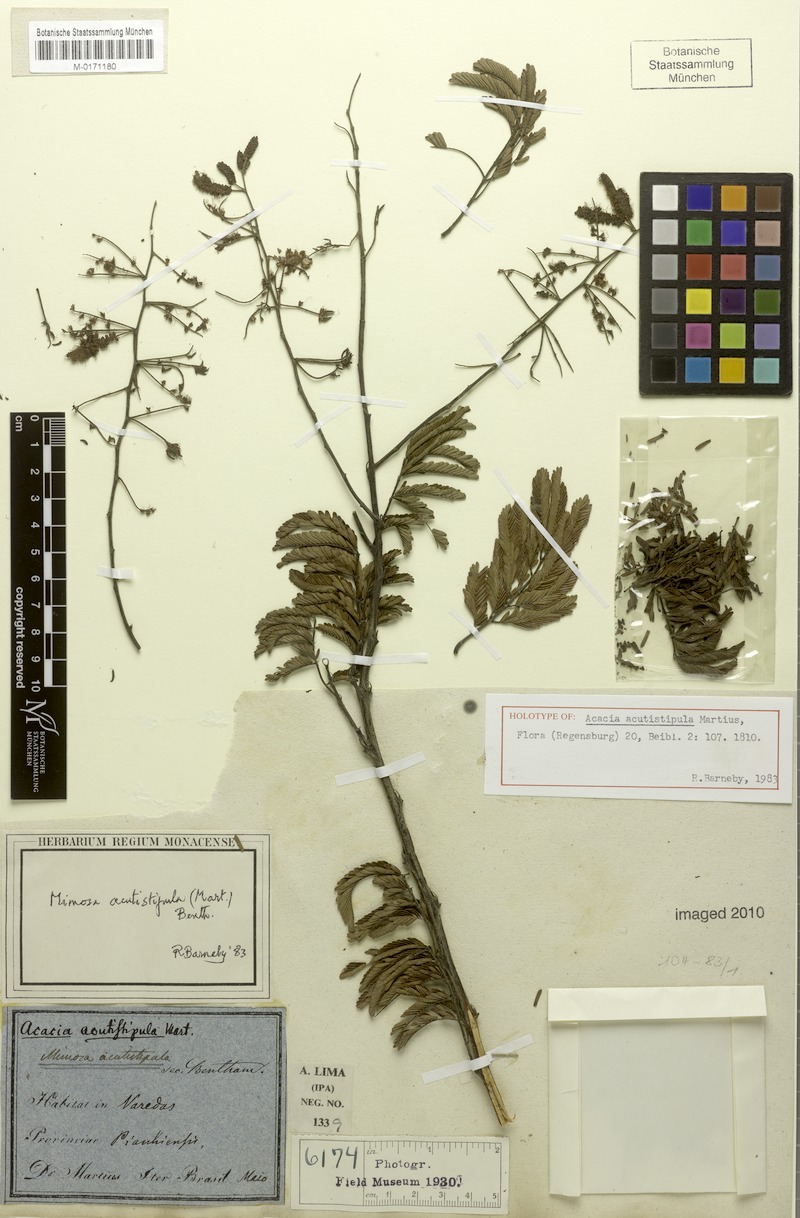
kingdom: Plantae
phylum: Tracheophyta
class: Magnoliopsida
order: Fabales
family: Fabaceae
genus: Mimosa
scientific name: Mimosa acutistipula
